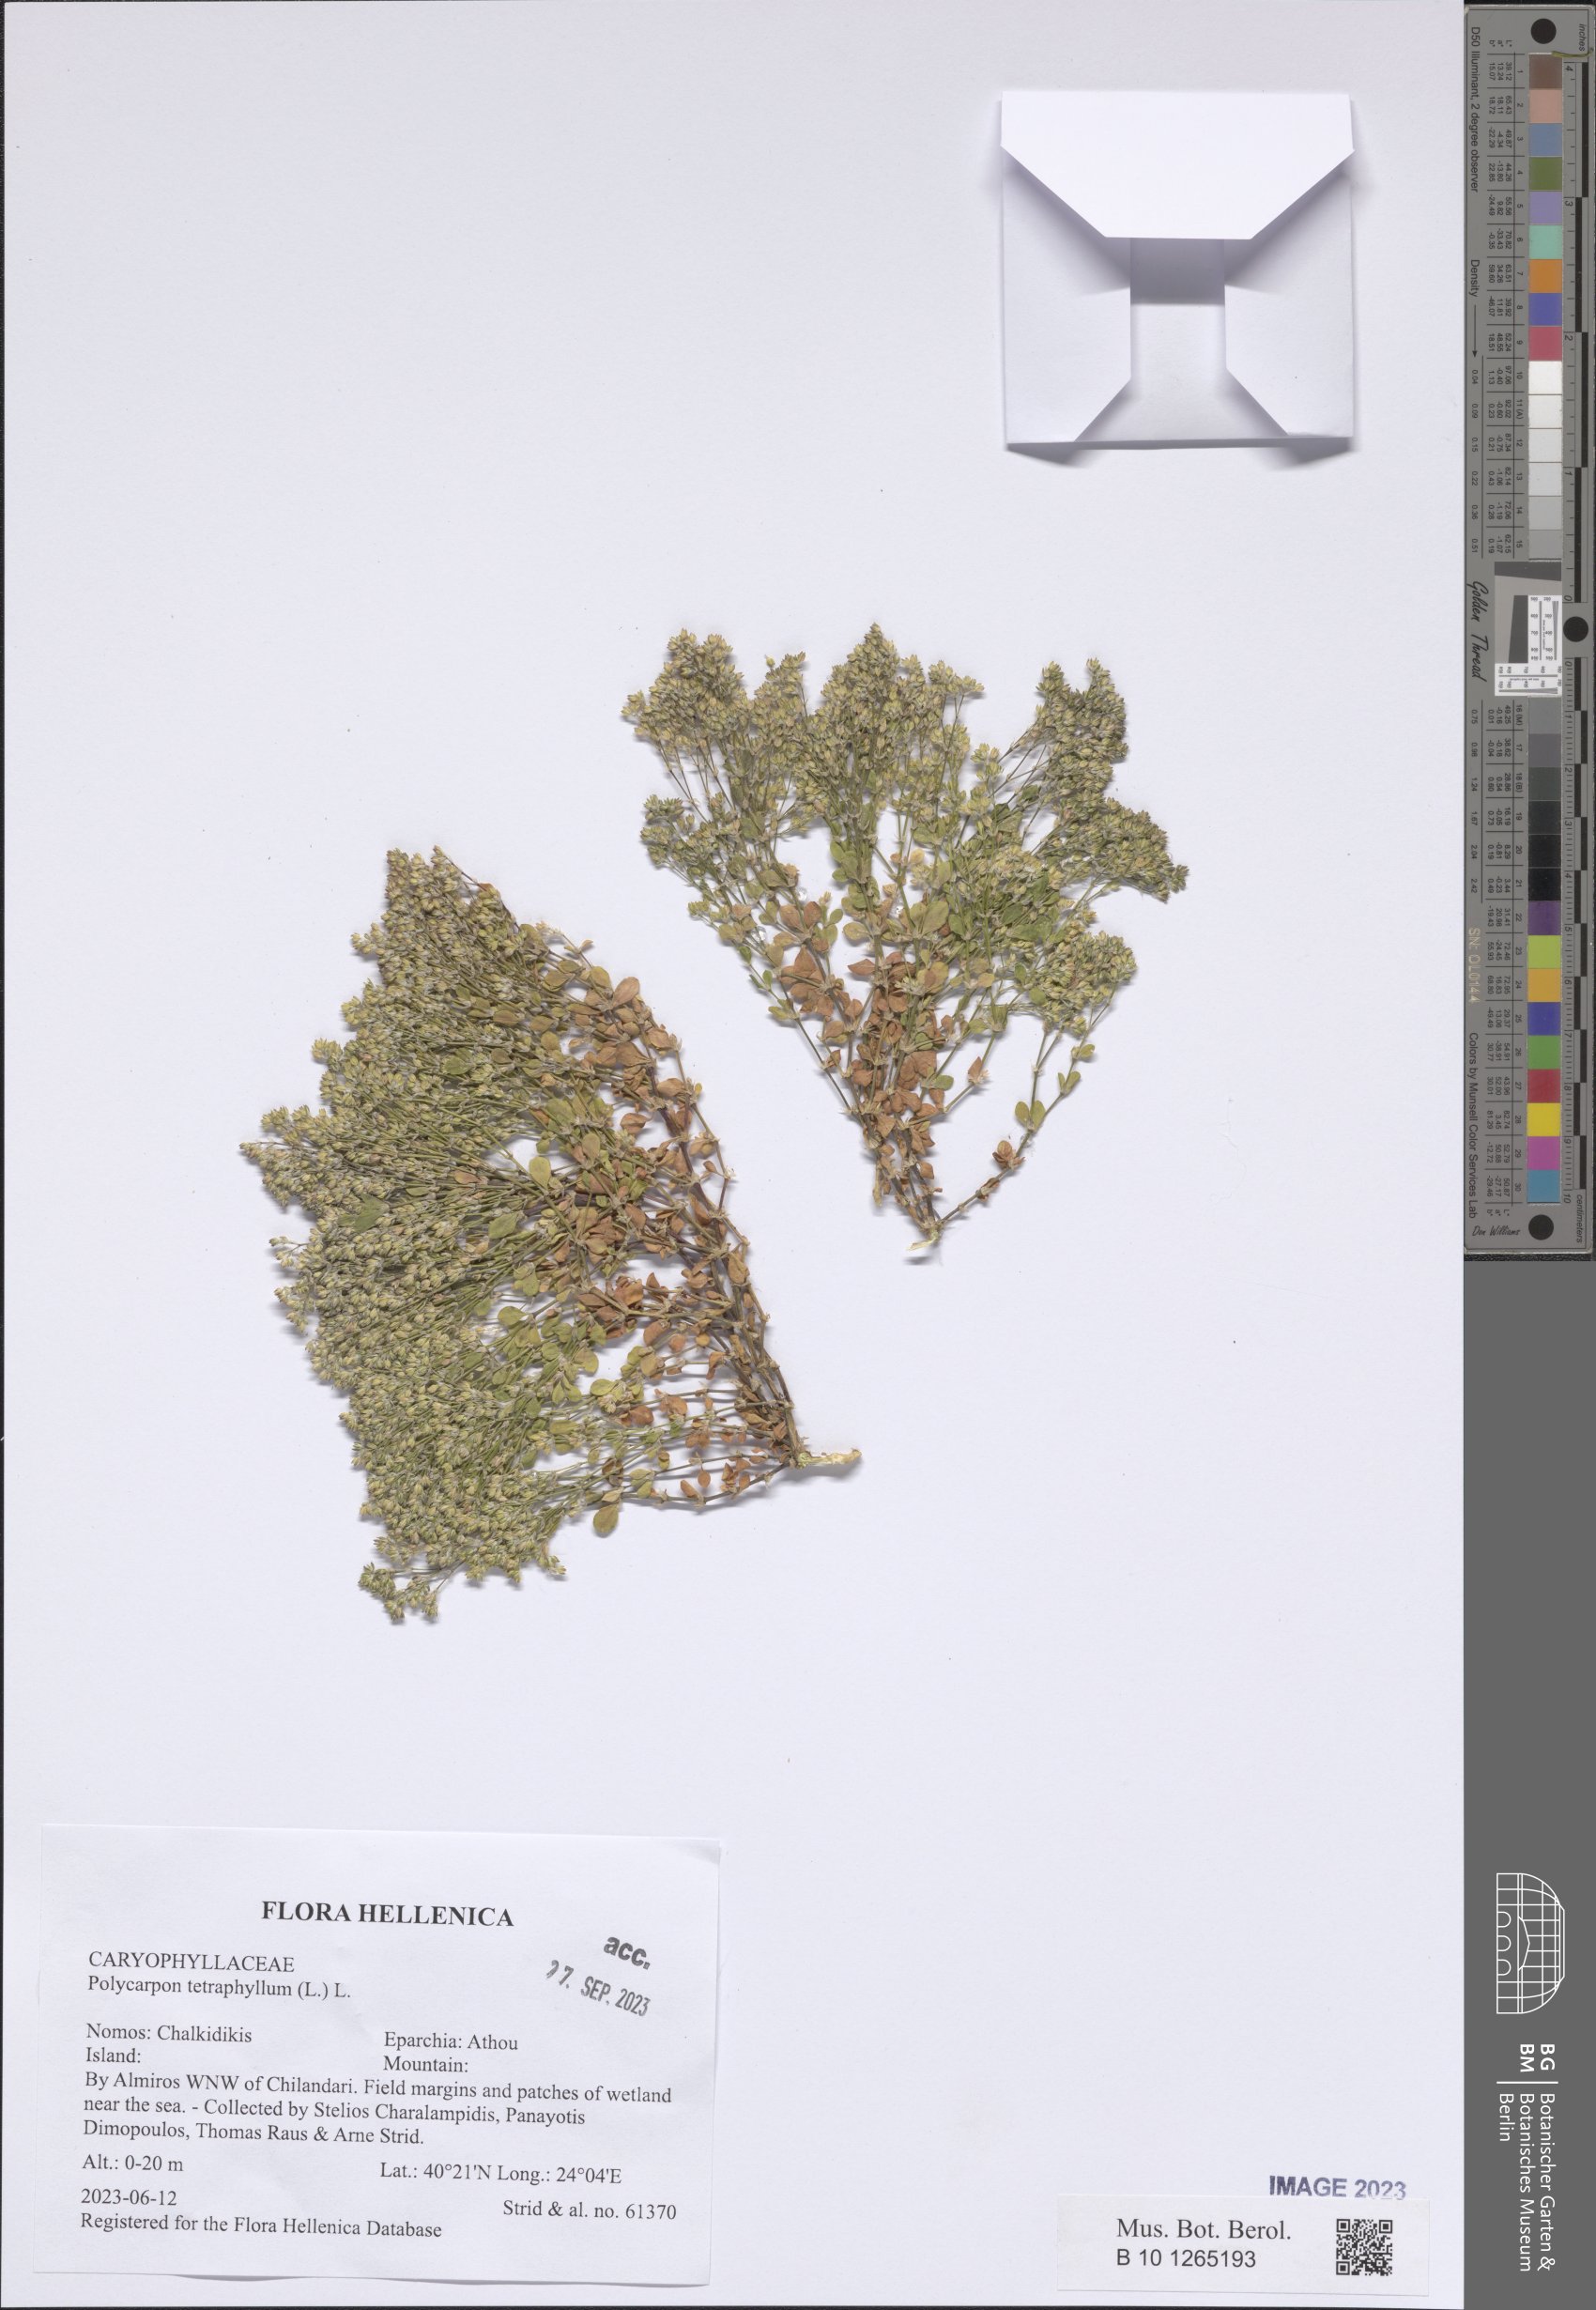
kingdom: Plantae
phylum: Tracheophyta
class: Magnoliopsida
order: Caryophyllales
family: Caryophyllaceae
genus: Polycarpon
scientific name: Polycarpon tetraphyllum
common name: Four-leaved all-seed
